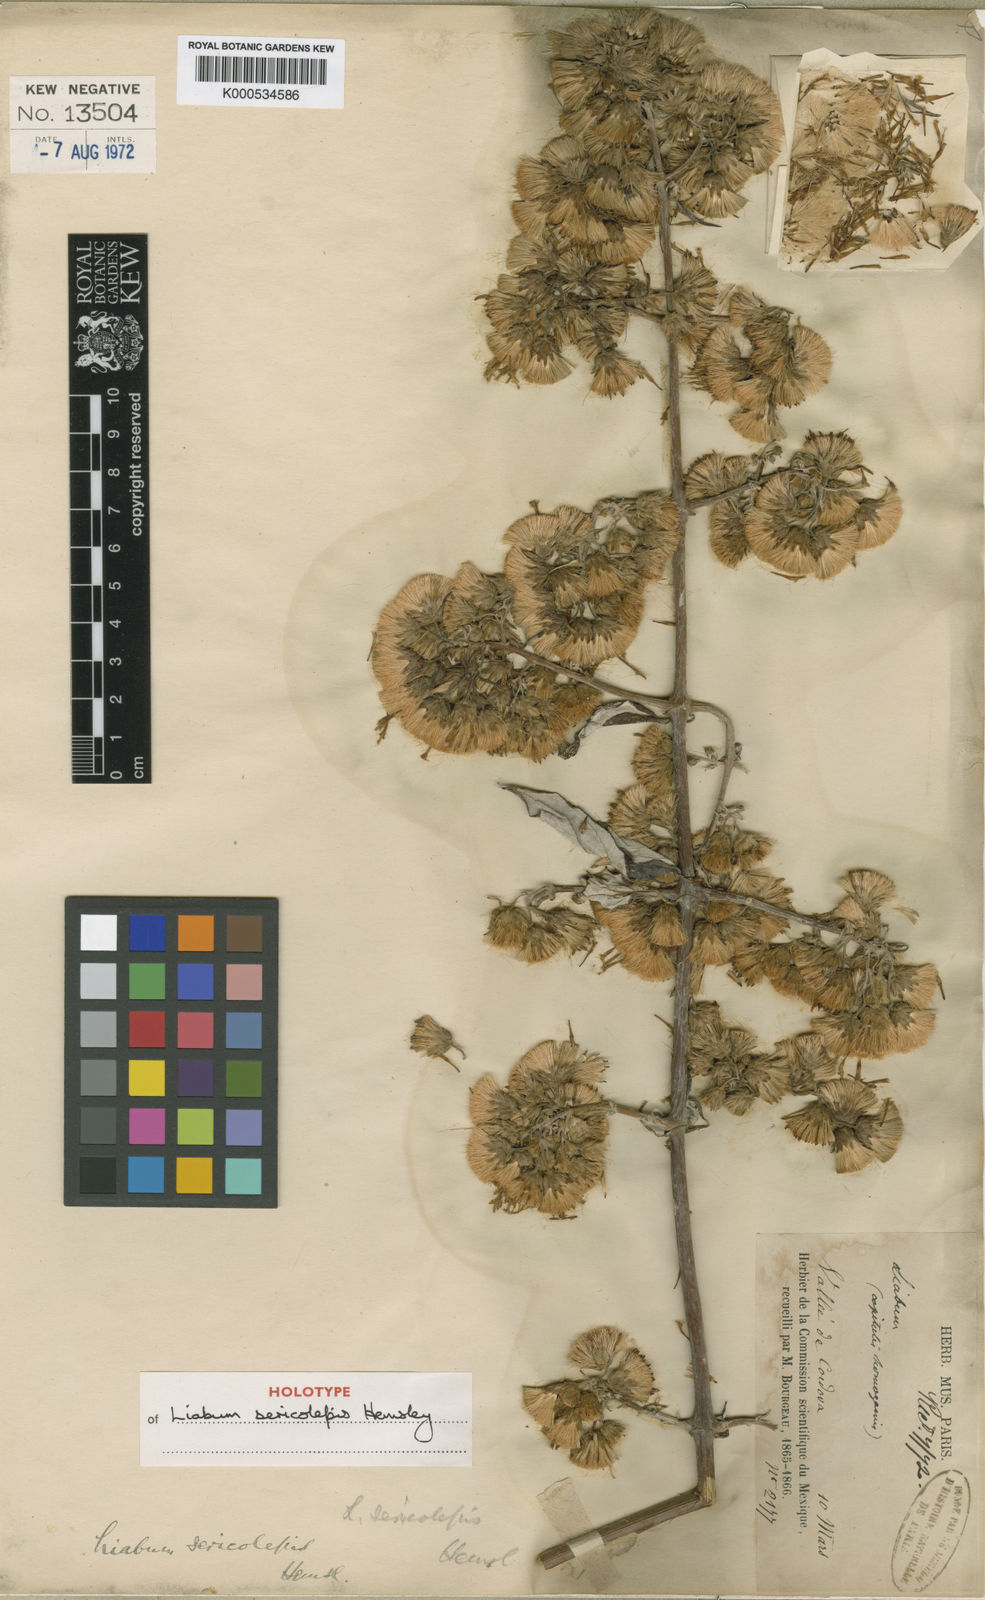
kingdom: Plantae
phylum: Tracheophyta
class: Magnoliopsida
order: Asterales
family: Asteraceae
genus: Sinclairia
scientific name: Sinclairia sericolepis
